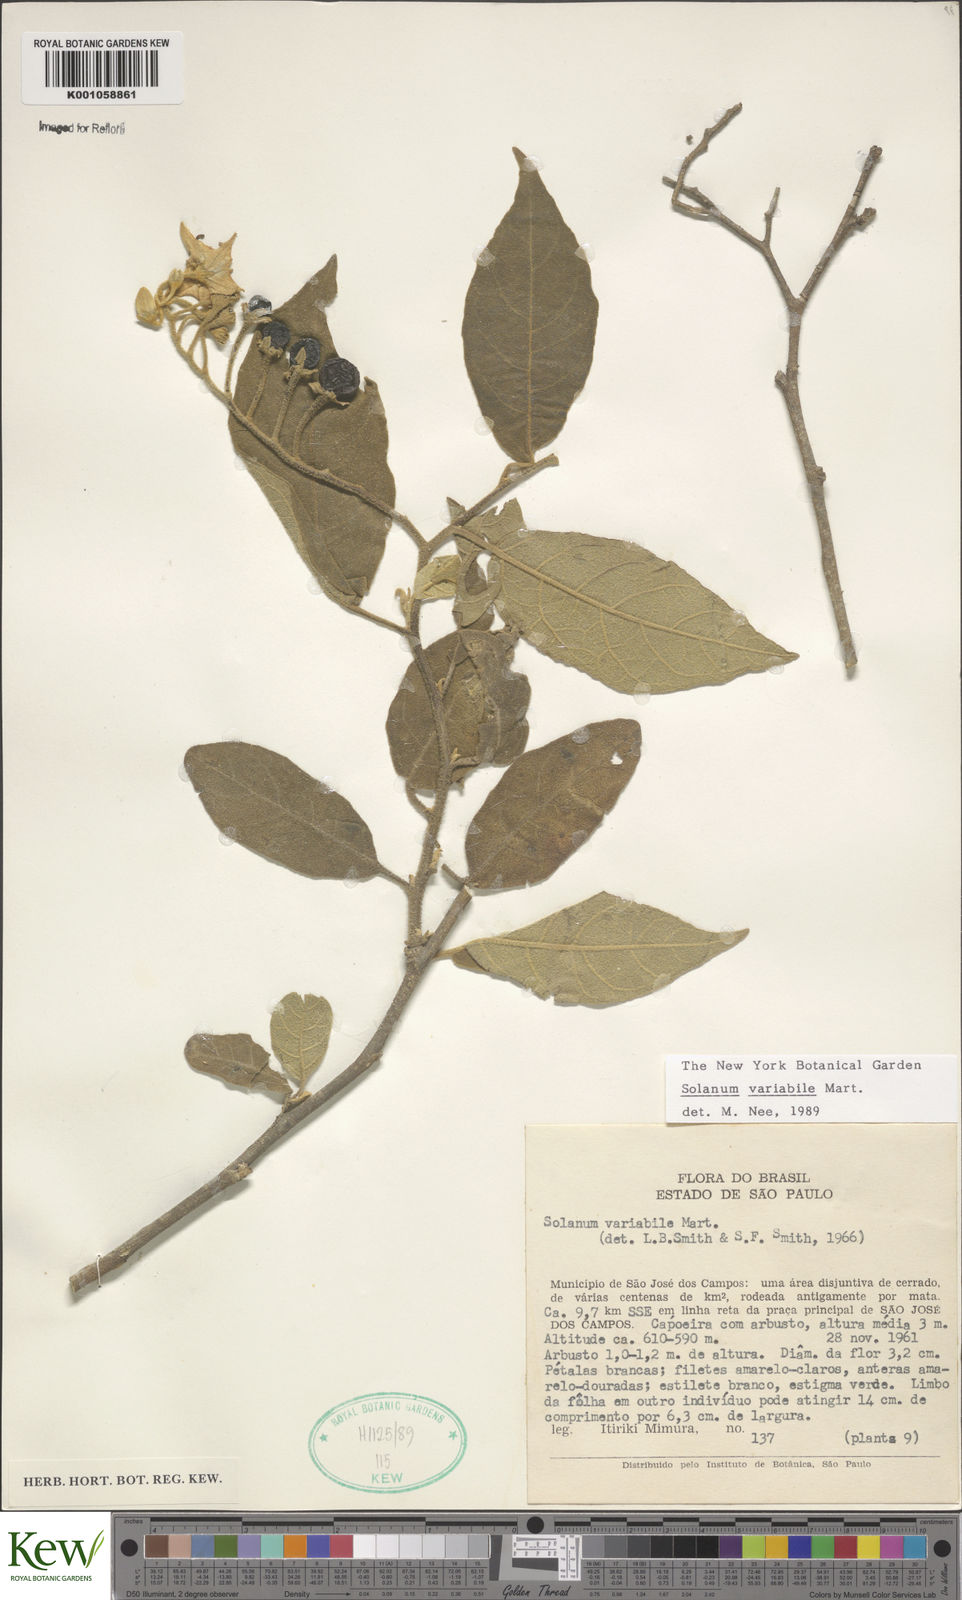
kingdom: Plantae
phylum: Tracheophyta
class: Magnoliopsida
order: Solanales
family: Solanaceae
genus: Solanum
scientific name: Solanum variabile
